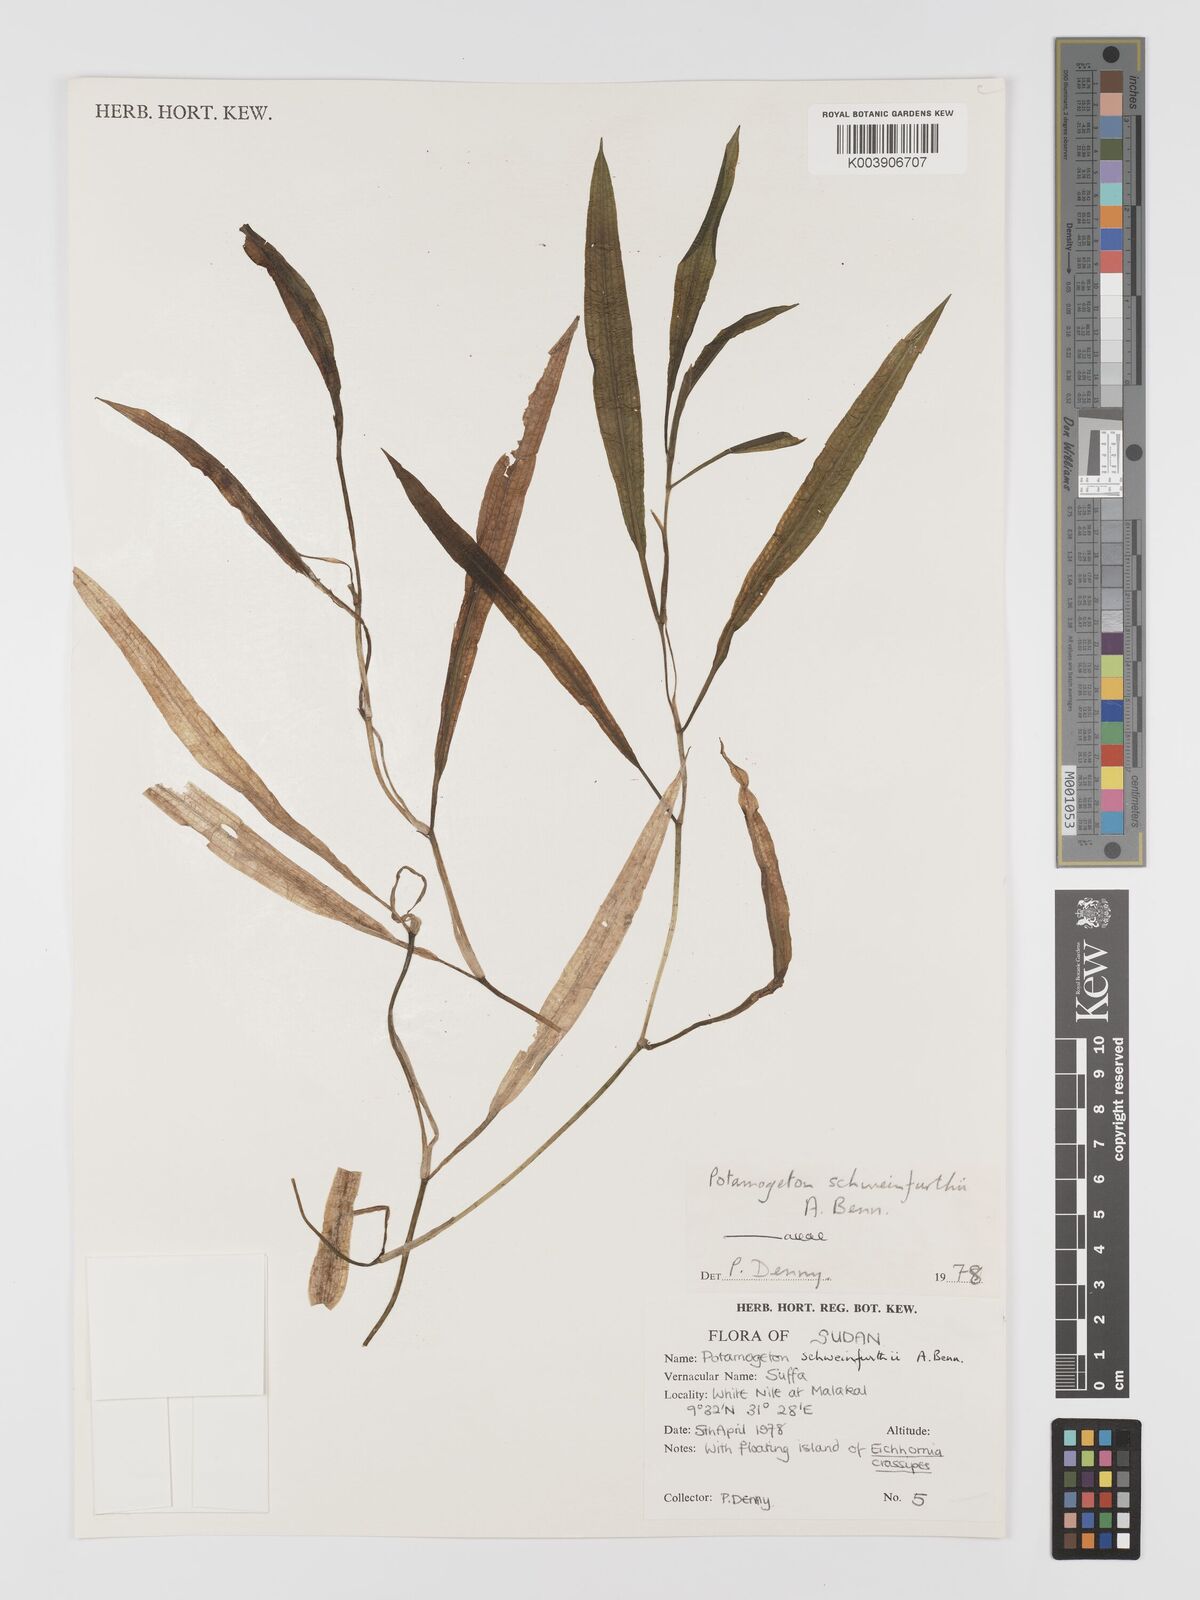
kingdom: Plantae
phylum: Tracheophyta
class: Liliopsida
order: Alismatales
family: Potamogetonaceae
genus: Potamogeton
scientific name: Potamogeton schweinfurthii
